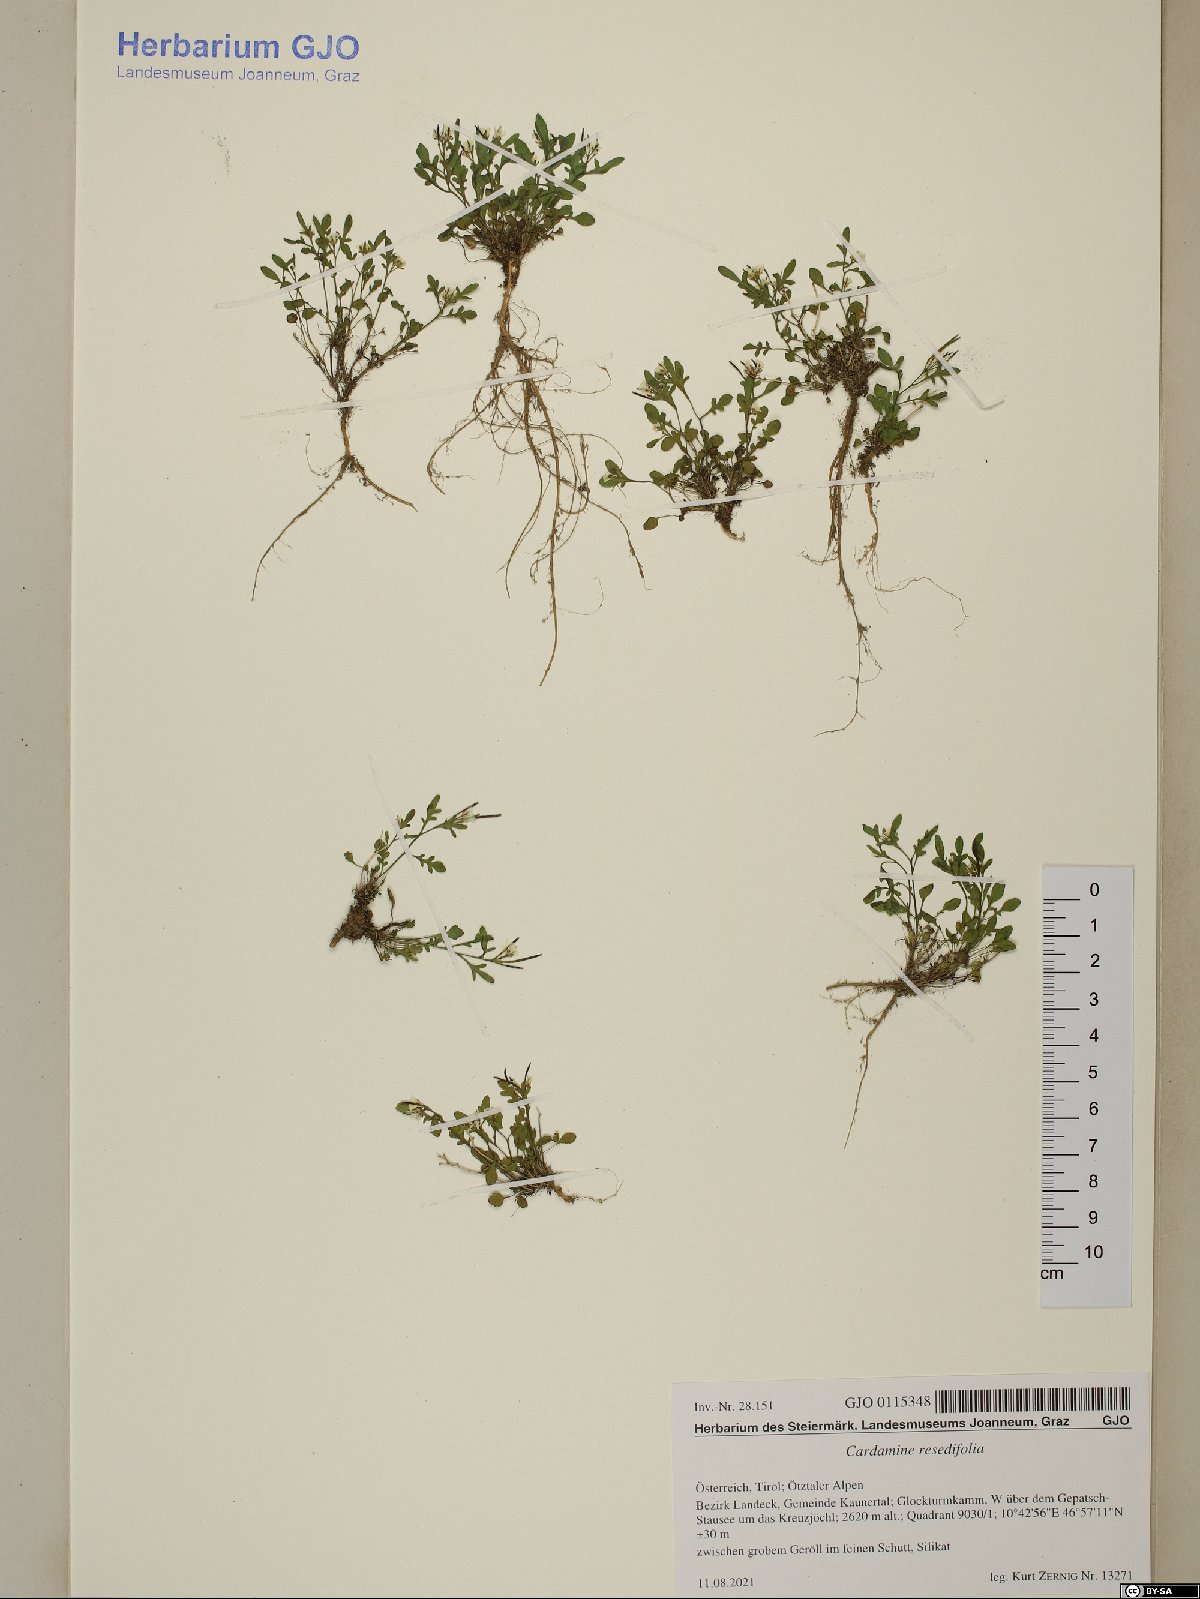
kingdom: Plantae
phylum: Tracheophyta
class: Magnoliopsida
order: Brassicales
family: Brassicaceae
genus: Cardamine
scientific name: Cardamine resedifolia
